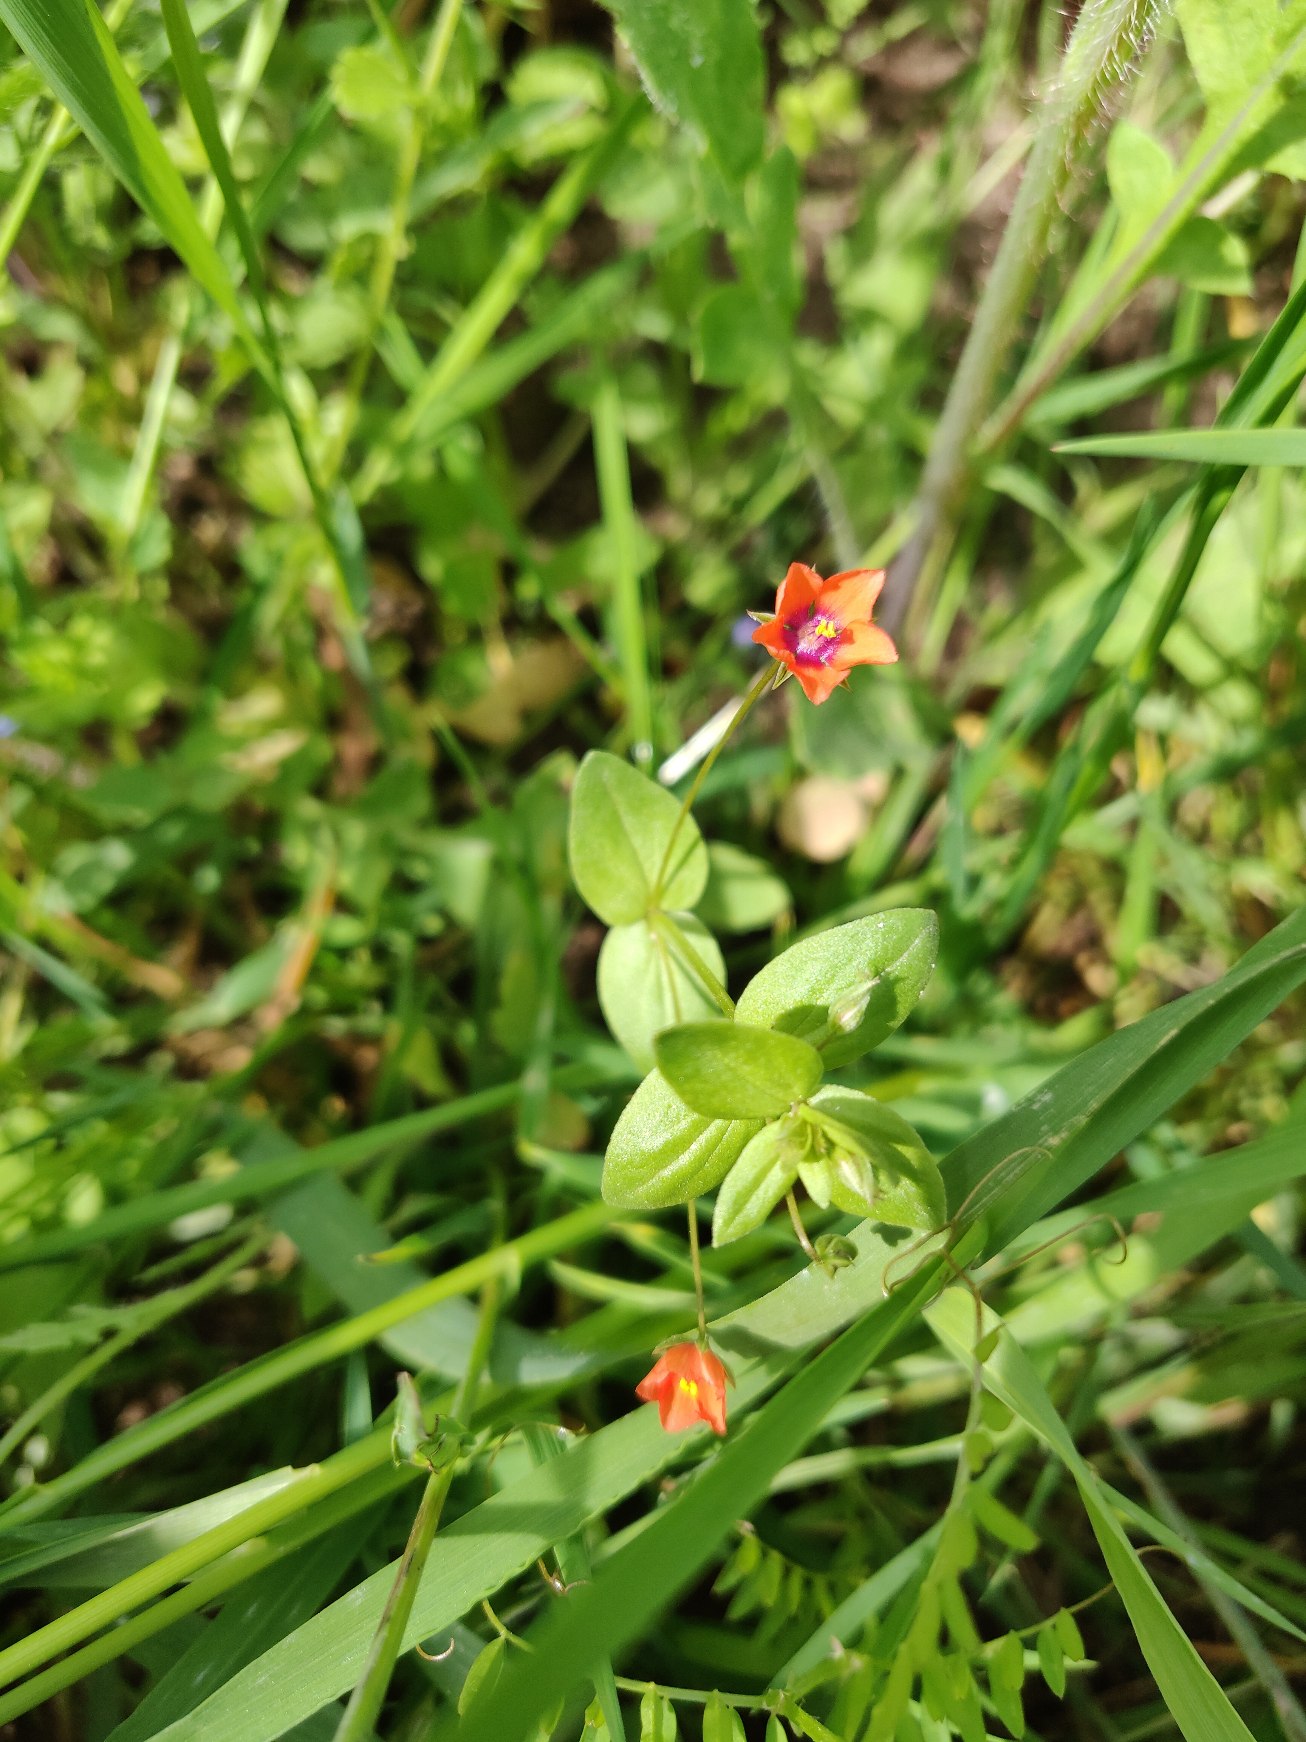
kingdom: Plantae
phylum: Tracheophyta
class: Magnoliopsida
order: Ericales
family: Primulaceae
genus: Lysimachia
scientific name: Lysimachia arvensis
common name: Rød arve
